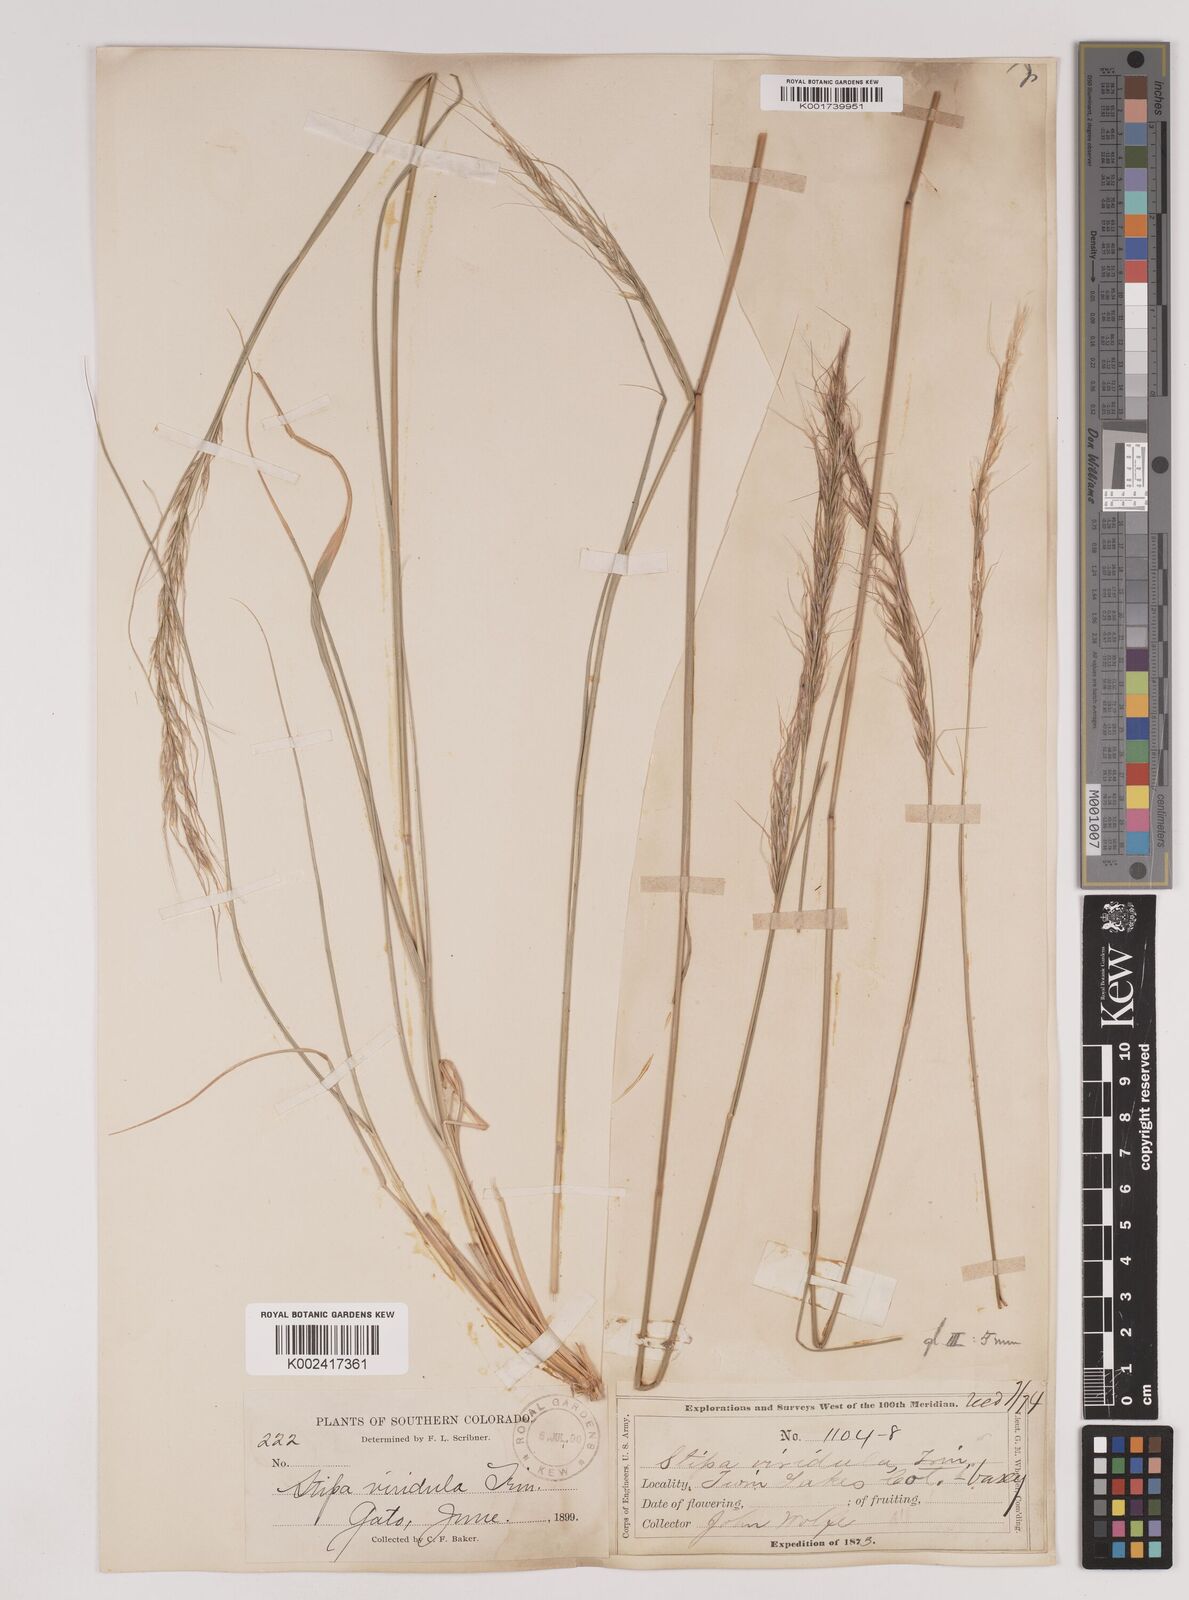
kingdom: Plantae
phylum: Tracheophyta
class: Liliopsida
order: Poales
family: Poaceae
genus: Nassella
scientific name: Nassella viridula
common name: Green needlegrass
